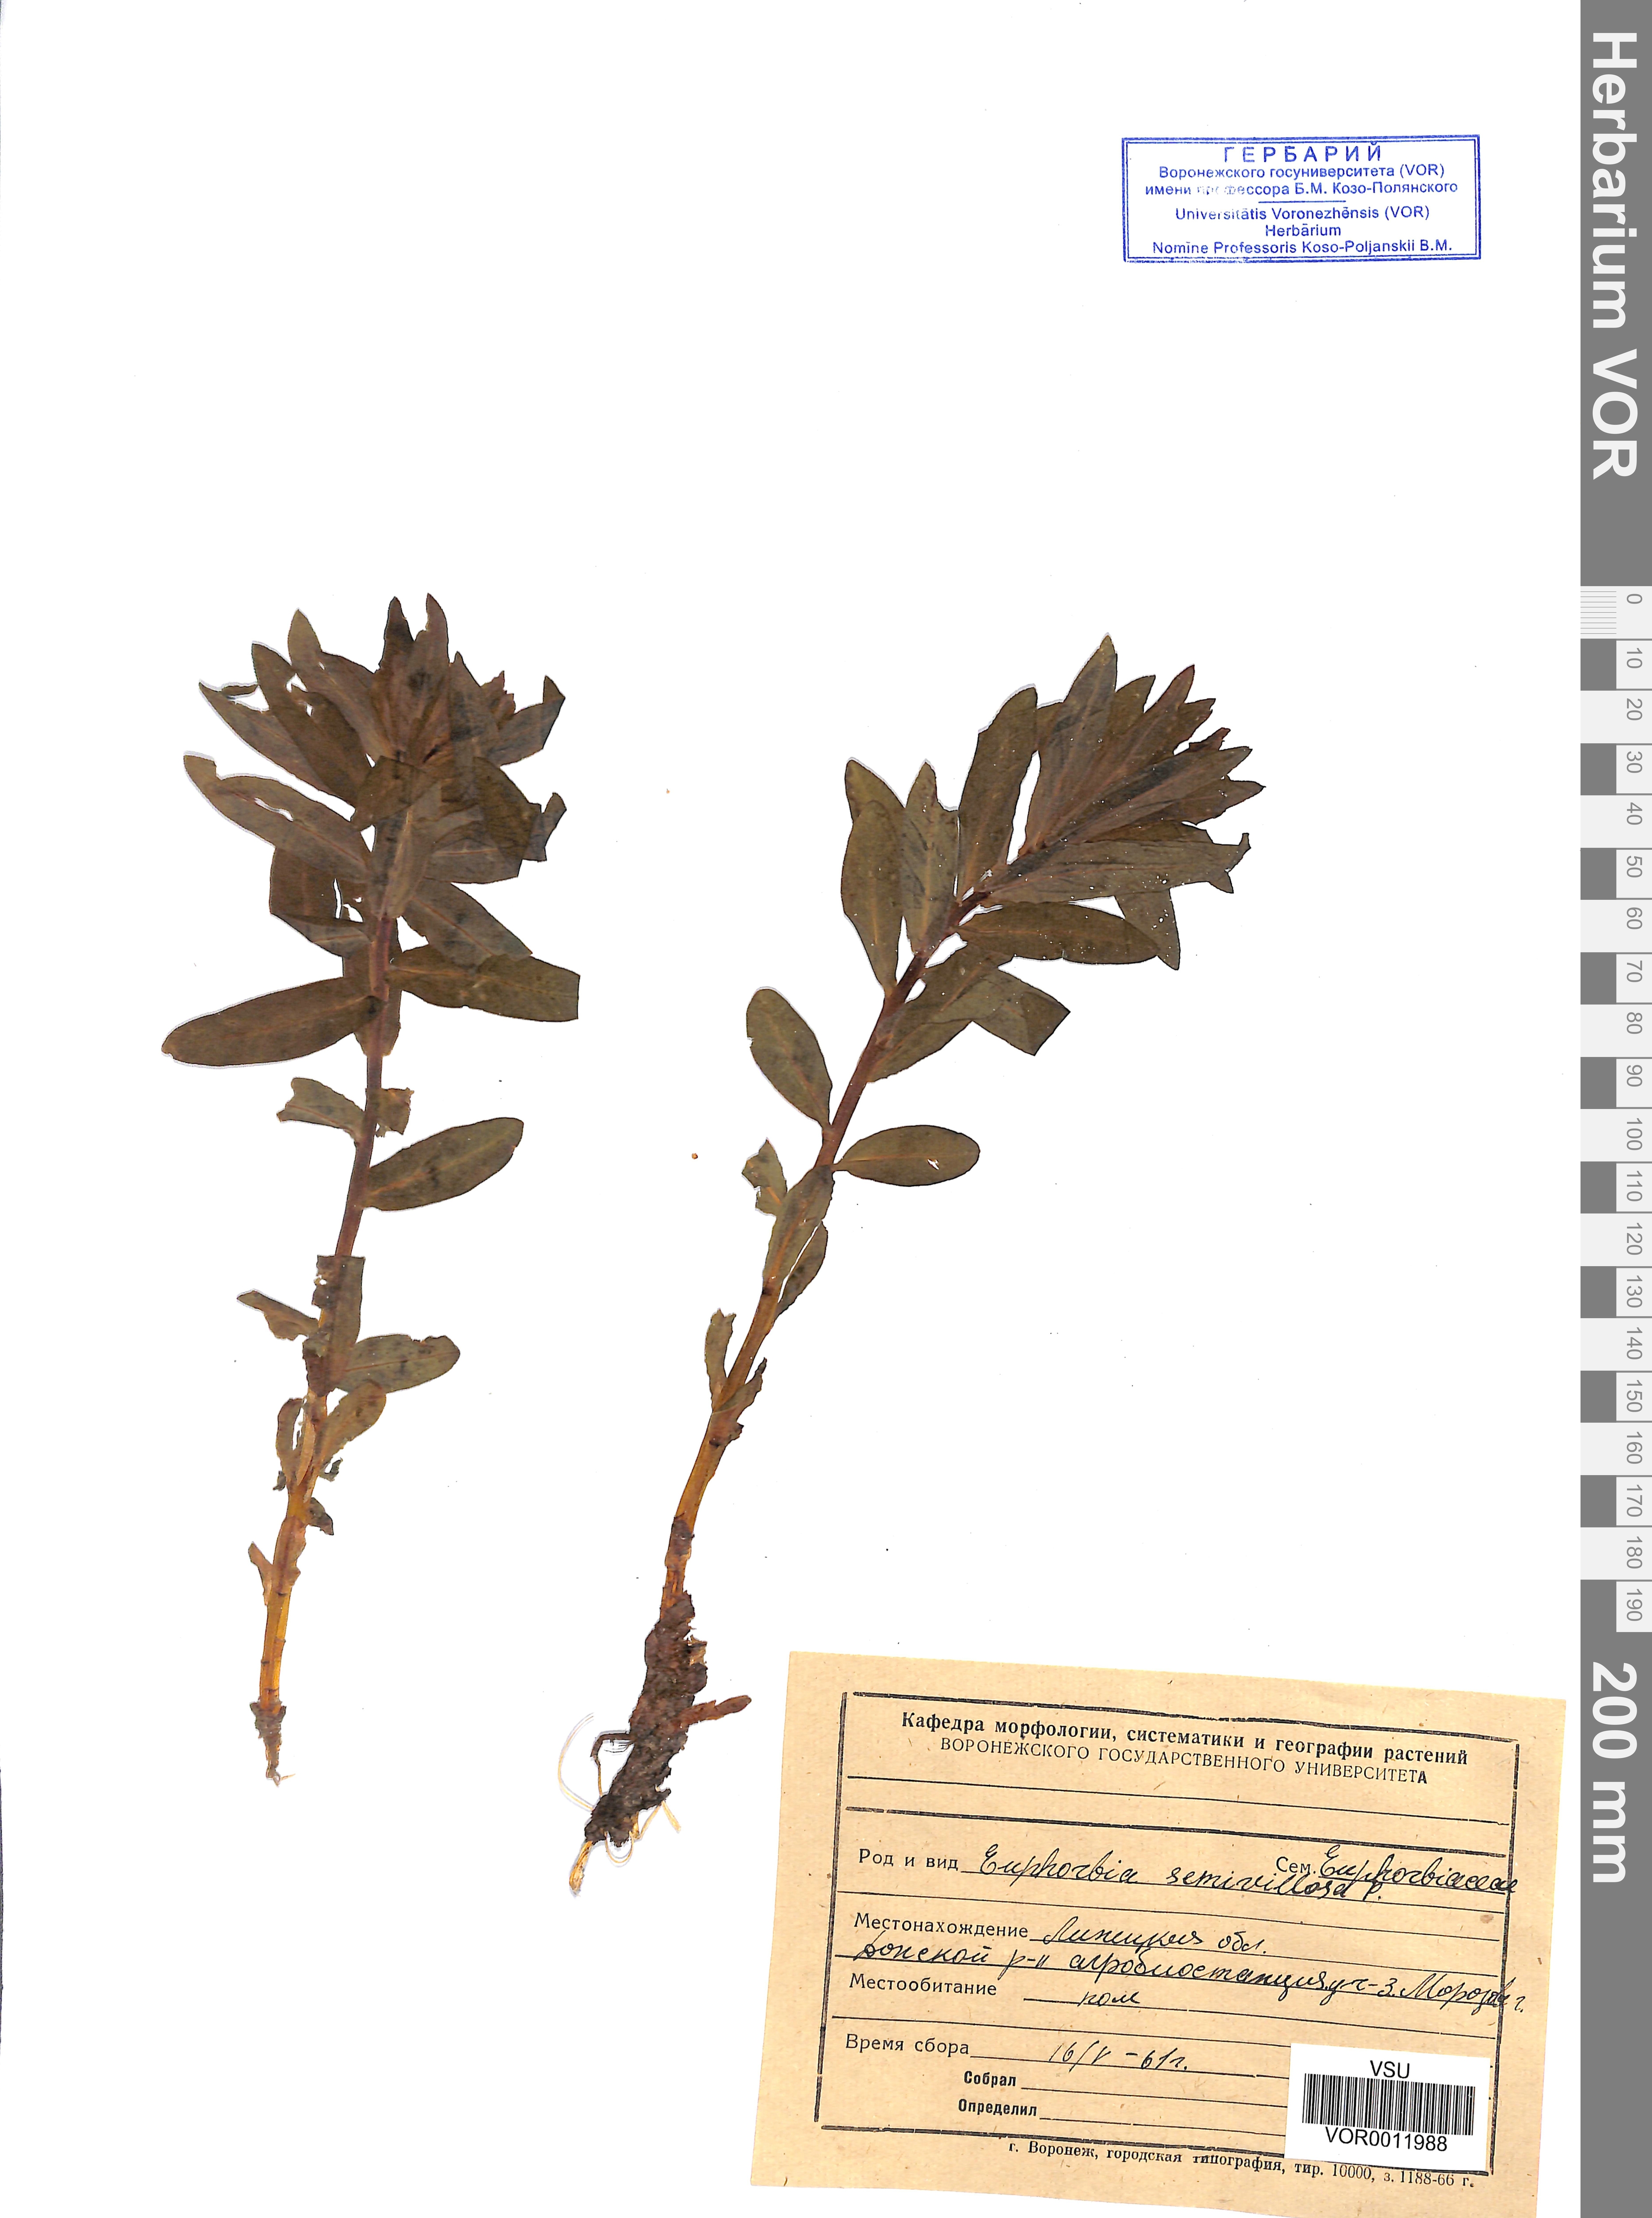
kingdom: Plantae
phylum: Tracheophyta
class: Magnoliopsida
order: Malpighiales
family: Euphorbiaceae
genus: Euphorbia
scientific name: Euphorbia semivillosa
